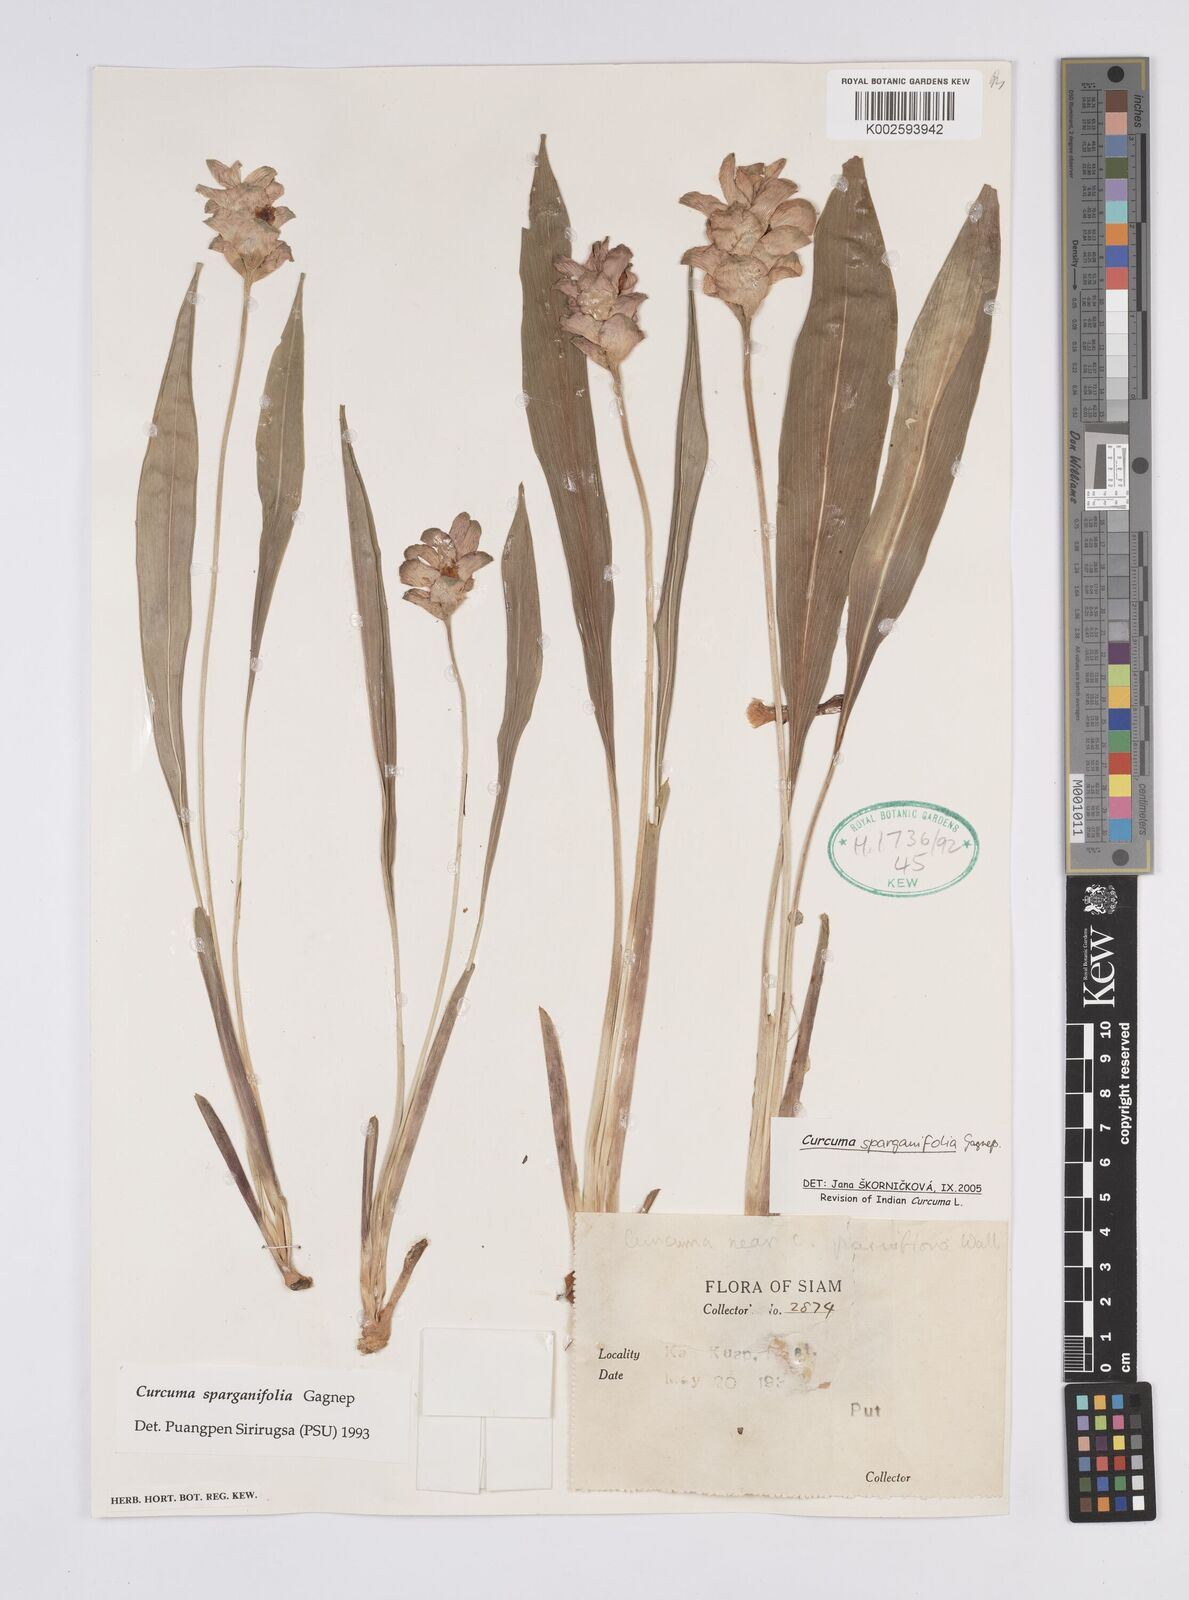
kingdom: Plantae
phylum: Tracheophyta
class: Liliopsida
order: Zingiberales
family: Zingiberaceae
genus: Curcuma
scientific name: Curcuma sparganiifolia
